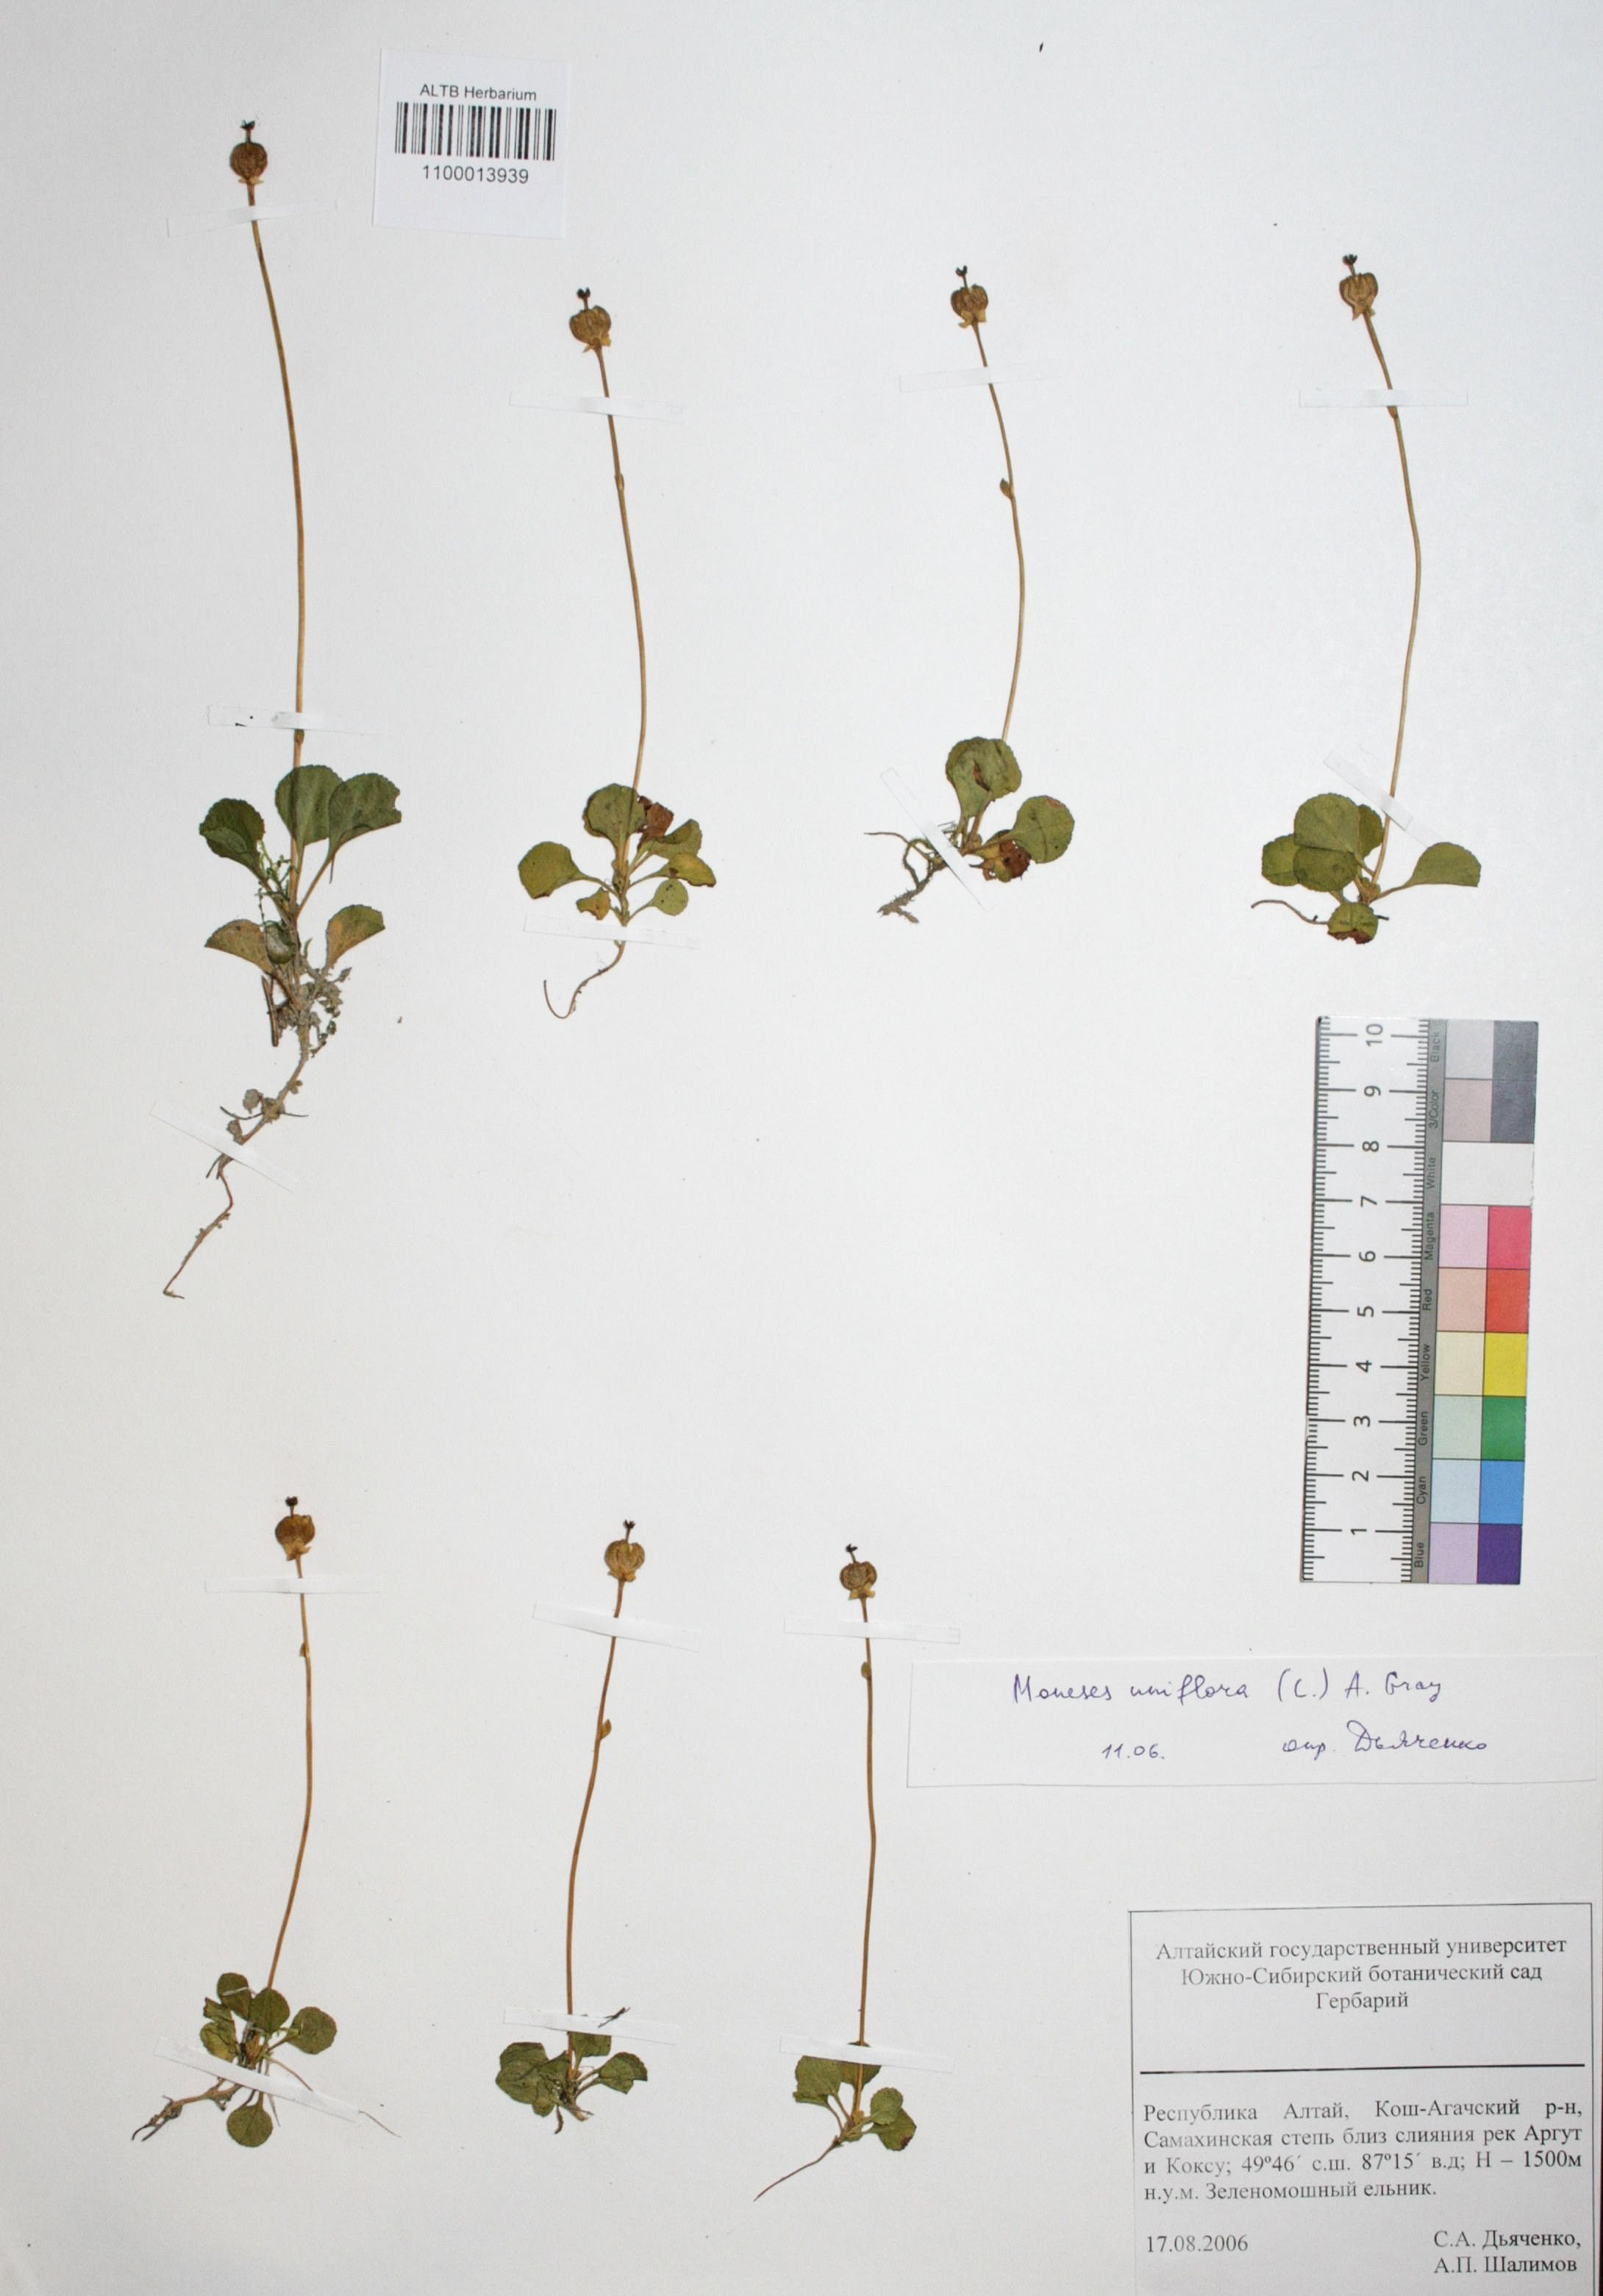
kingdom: Plantae
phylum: Tracheophyta
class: Magnoliopsida
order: Ericales
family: Ericaceae
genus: Moneses
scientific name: Moneses uniflora
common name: One-flowered wintergreen
